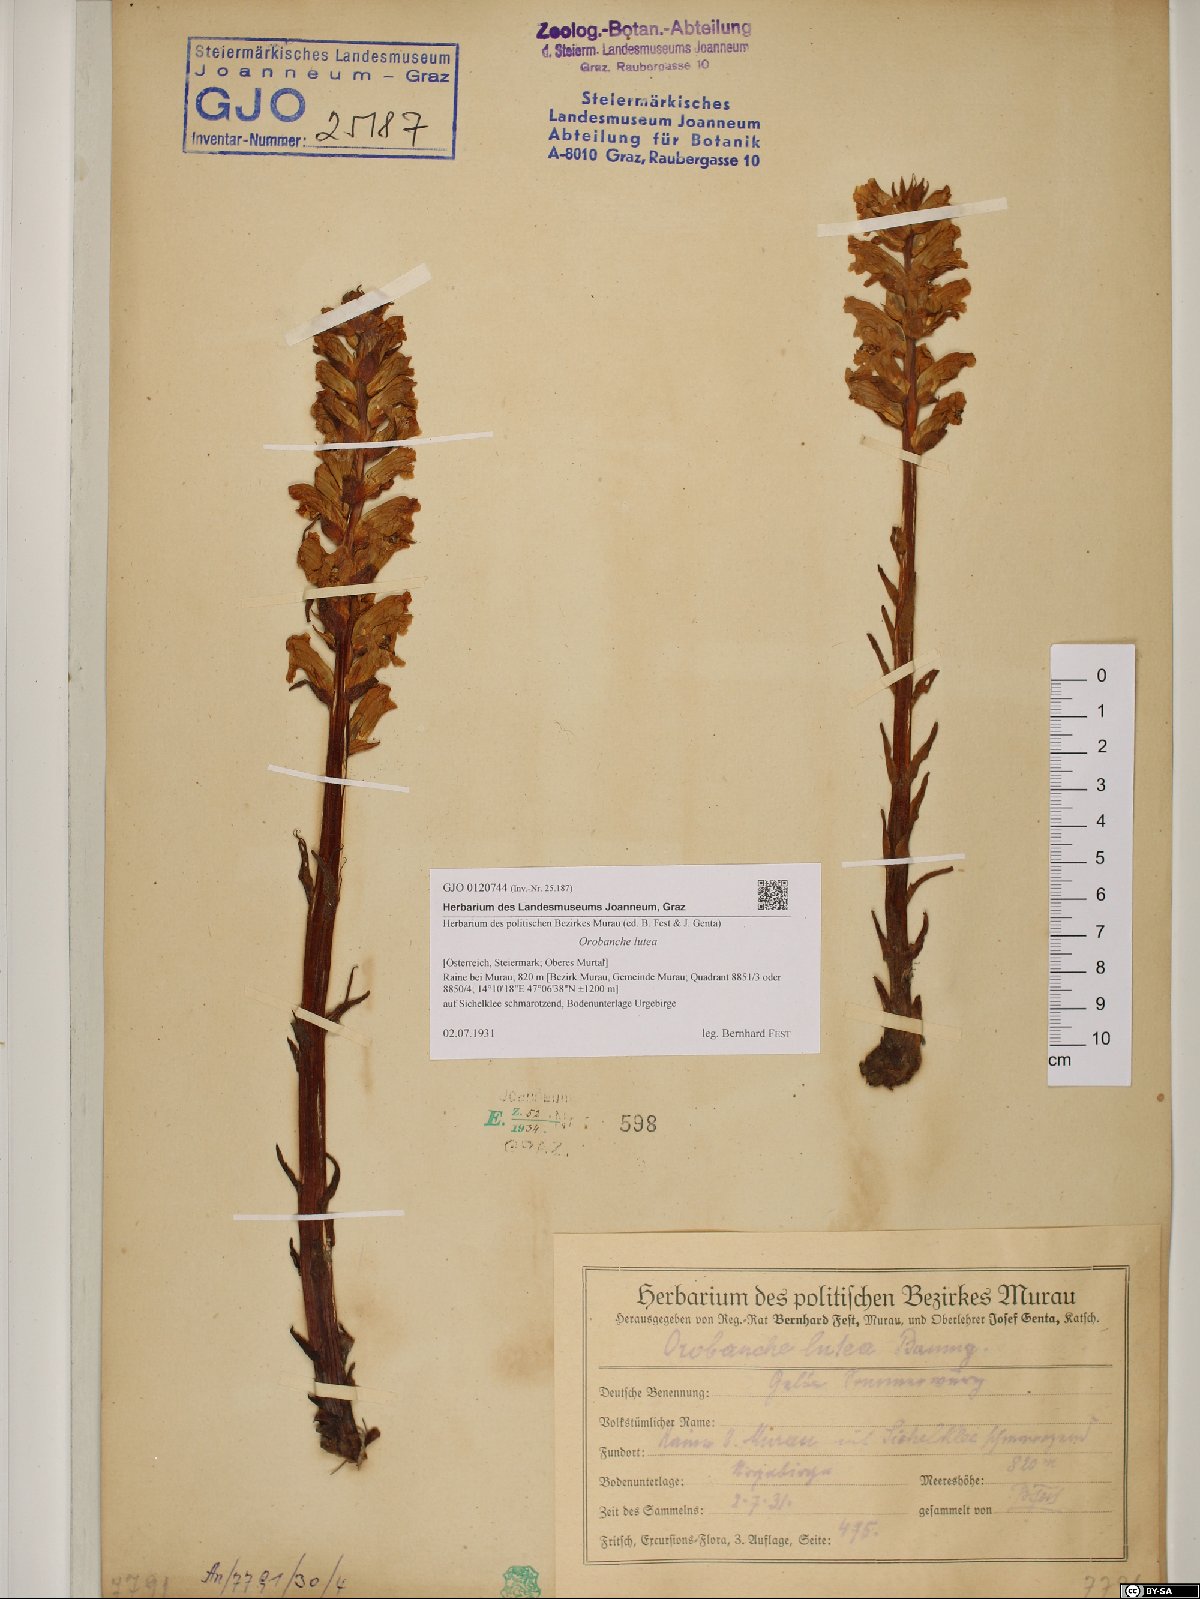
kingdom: Plantae
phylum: Tracheophyta
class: Magnoliopsida
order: Lamiales
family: Orobanchaceae
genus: Orobanche
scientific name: Orobanche lutea
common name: Yellow broomrape
